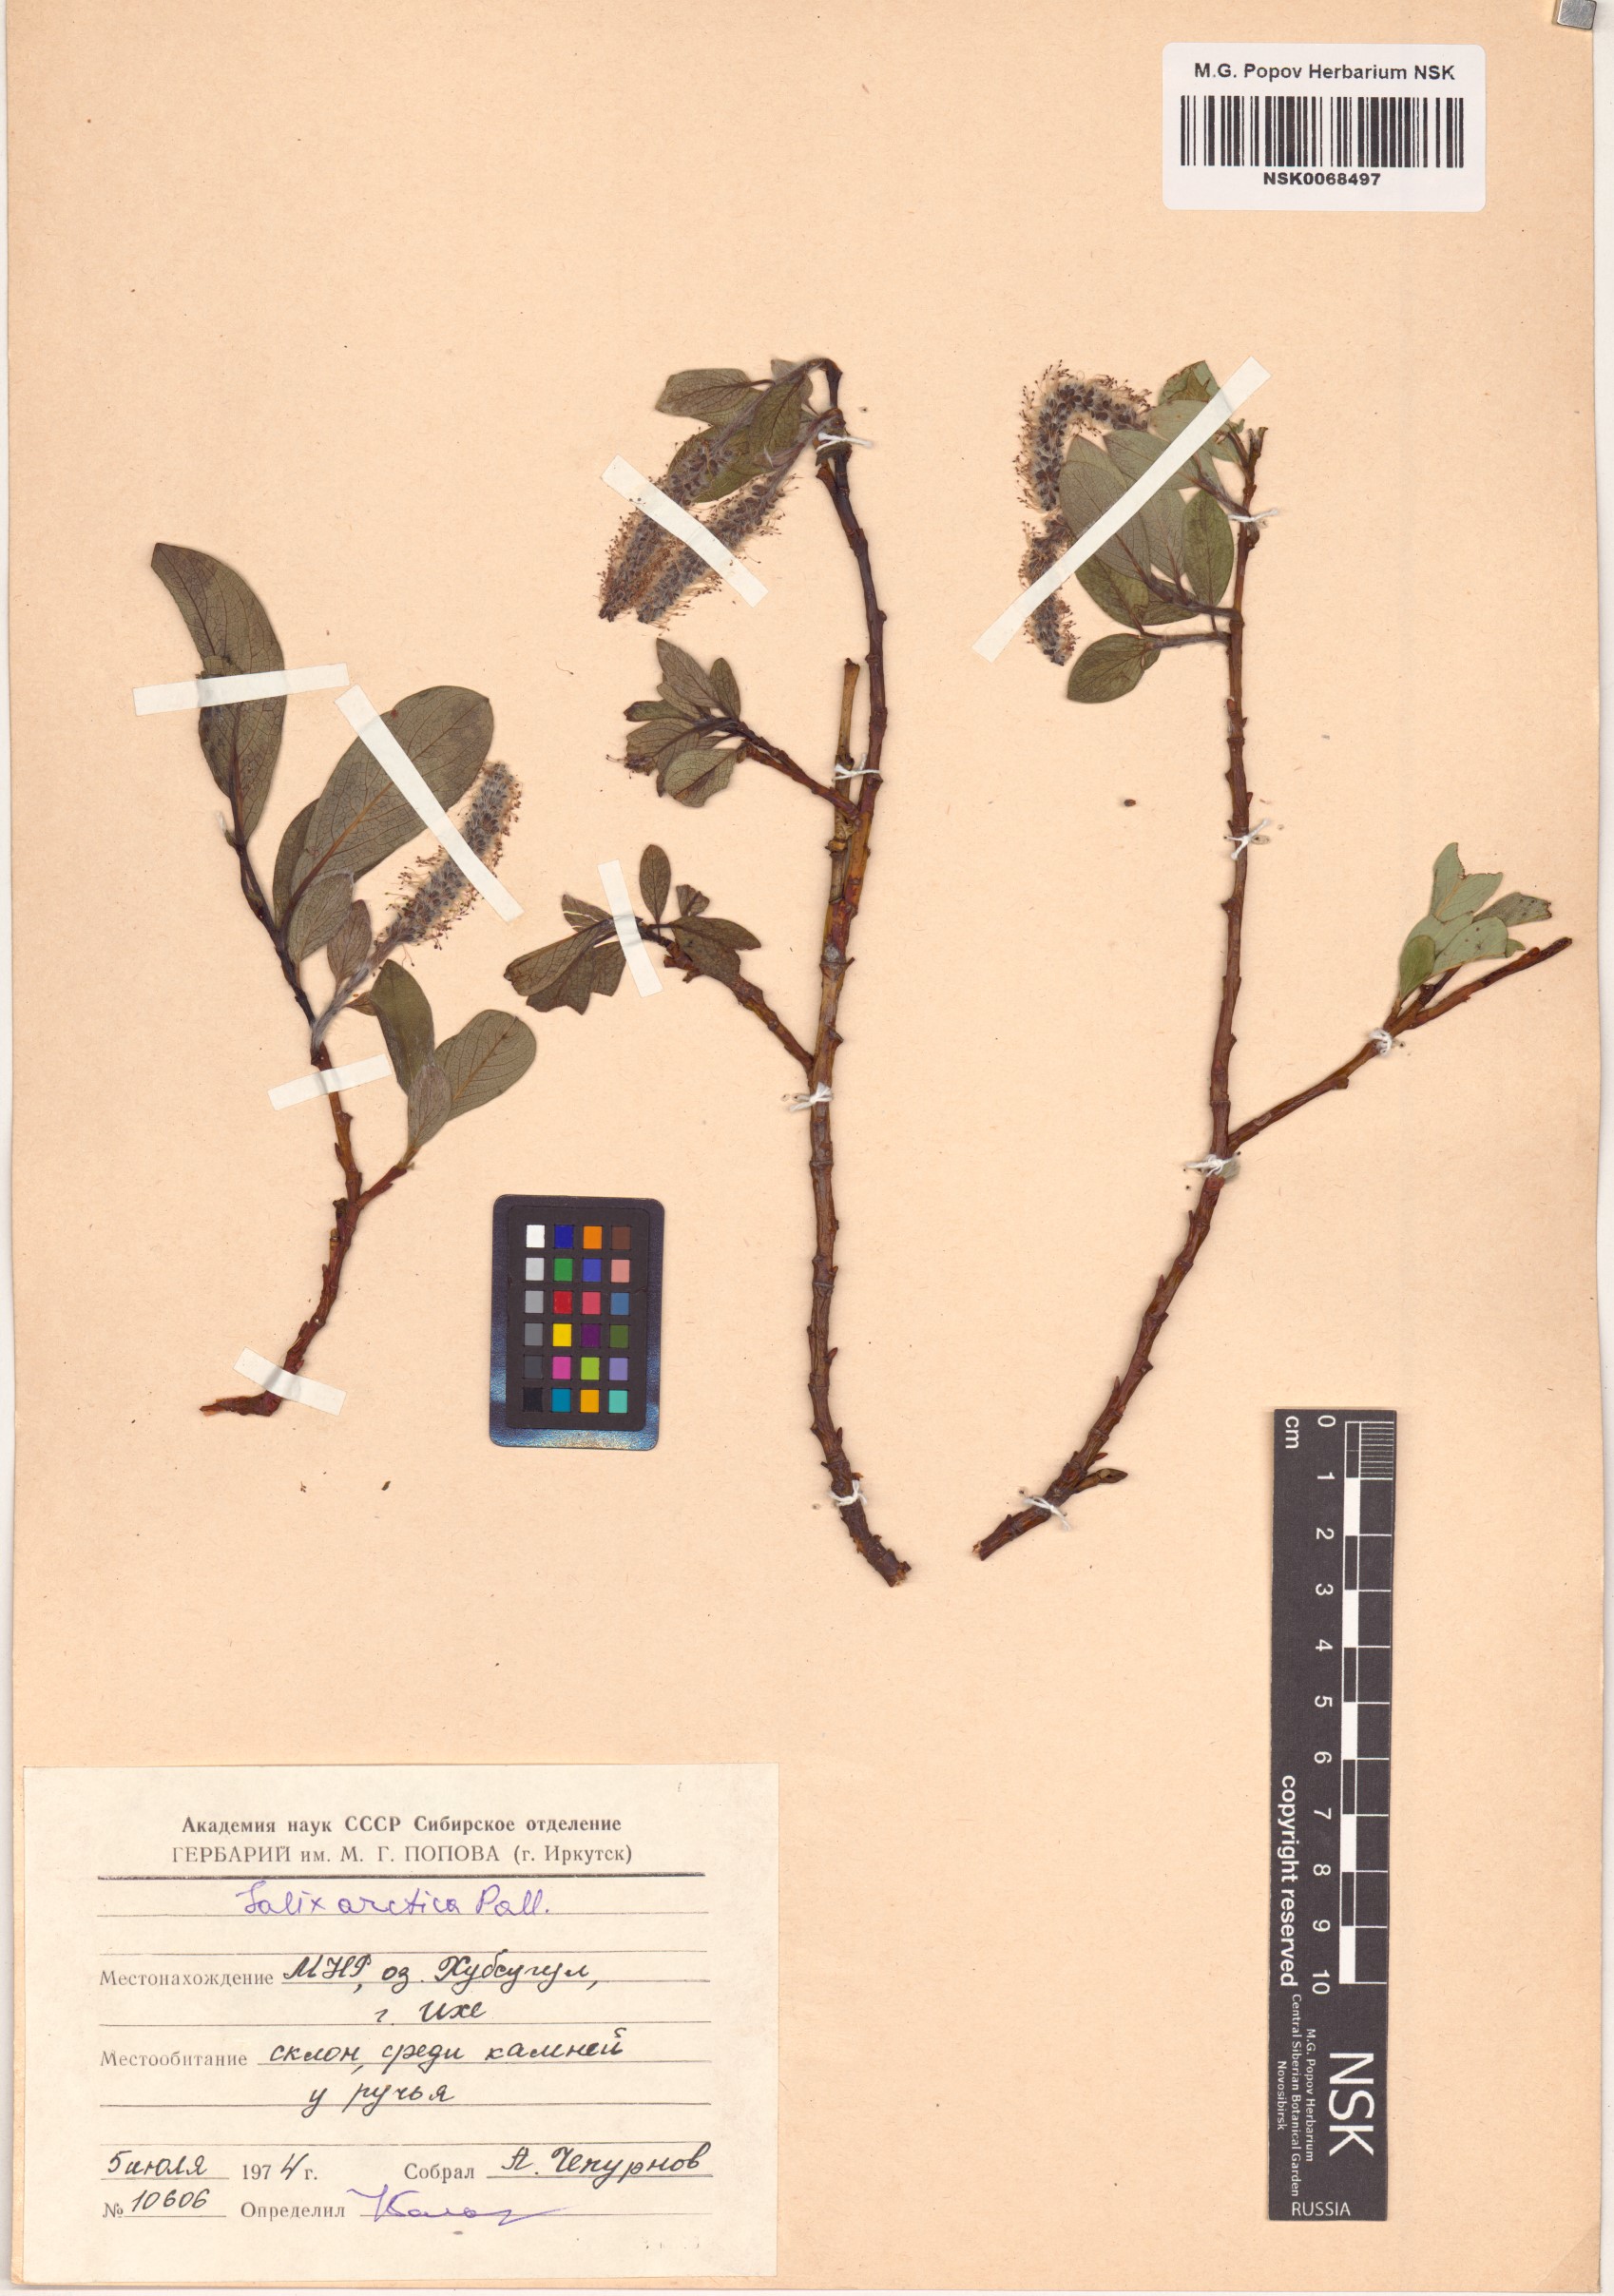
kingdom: Plantae
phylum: Tracheophyta
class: Magnoliopsida
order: Malpighiales
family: Salicaceae
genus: Salix
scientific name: Salix arctica
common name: Arctic willow
